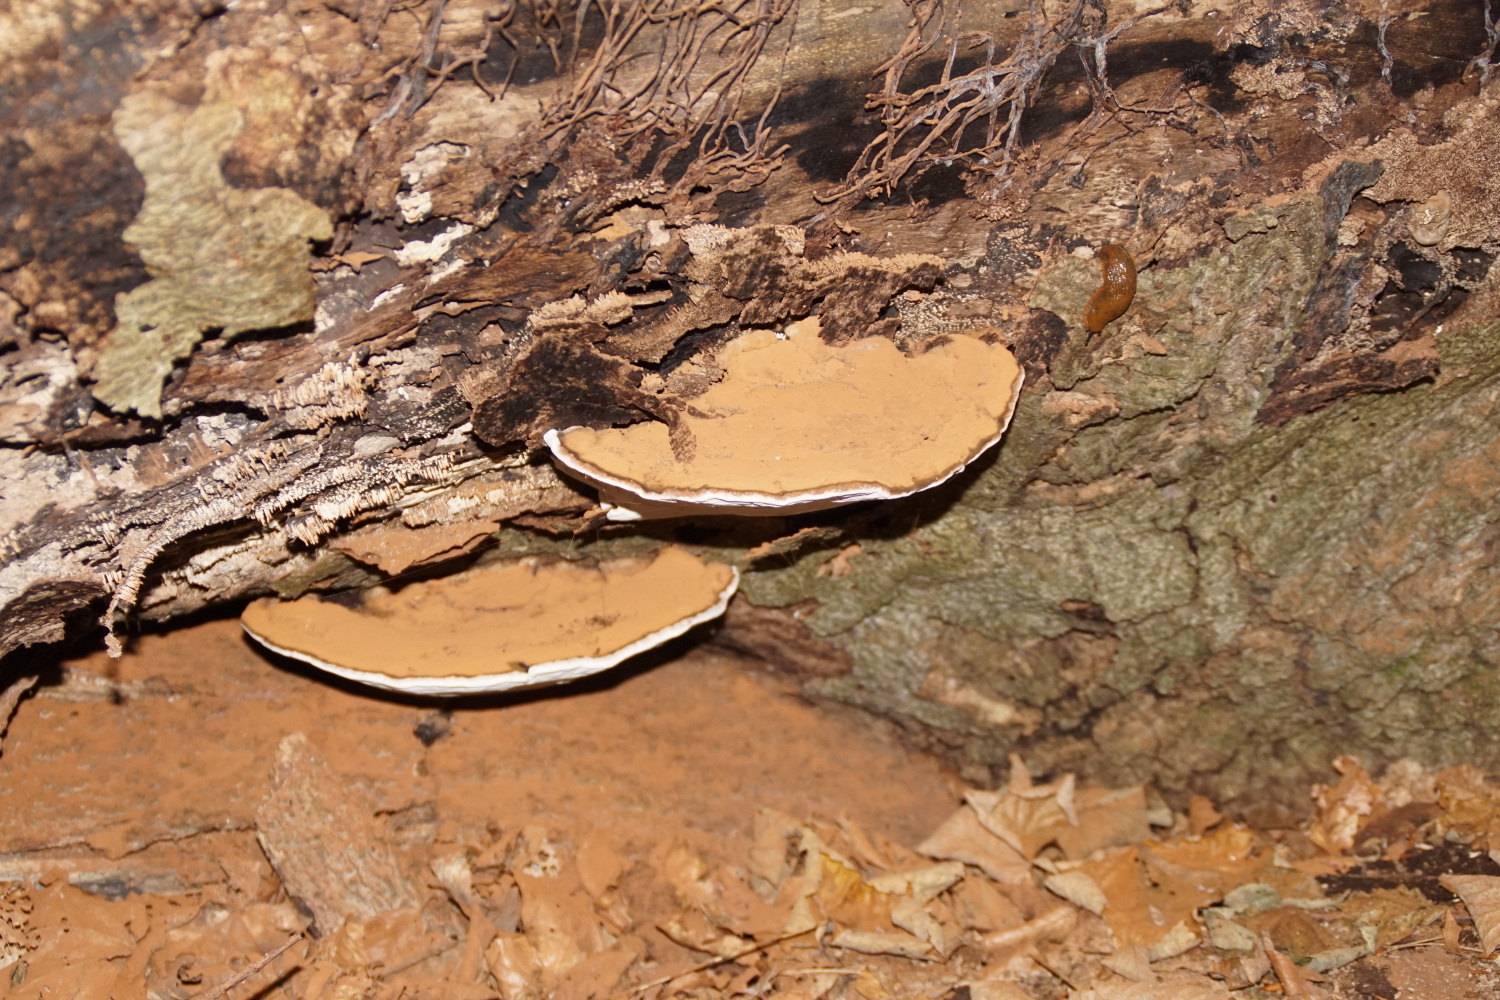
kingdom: Fungi
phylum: Basidiomycota
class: Agaricomycetes
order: Polyporales
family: Polyporaceae
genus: Ganoderma
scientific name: Ganoderma applanatum
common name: flad lakporesvamp
